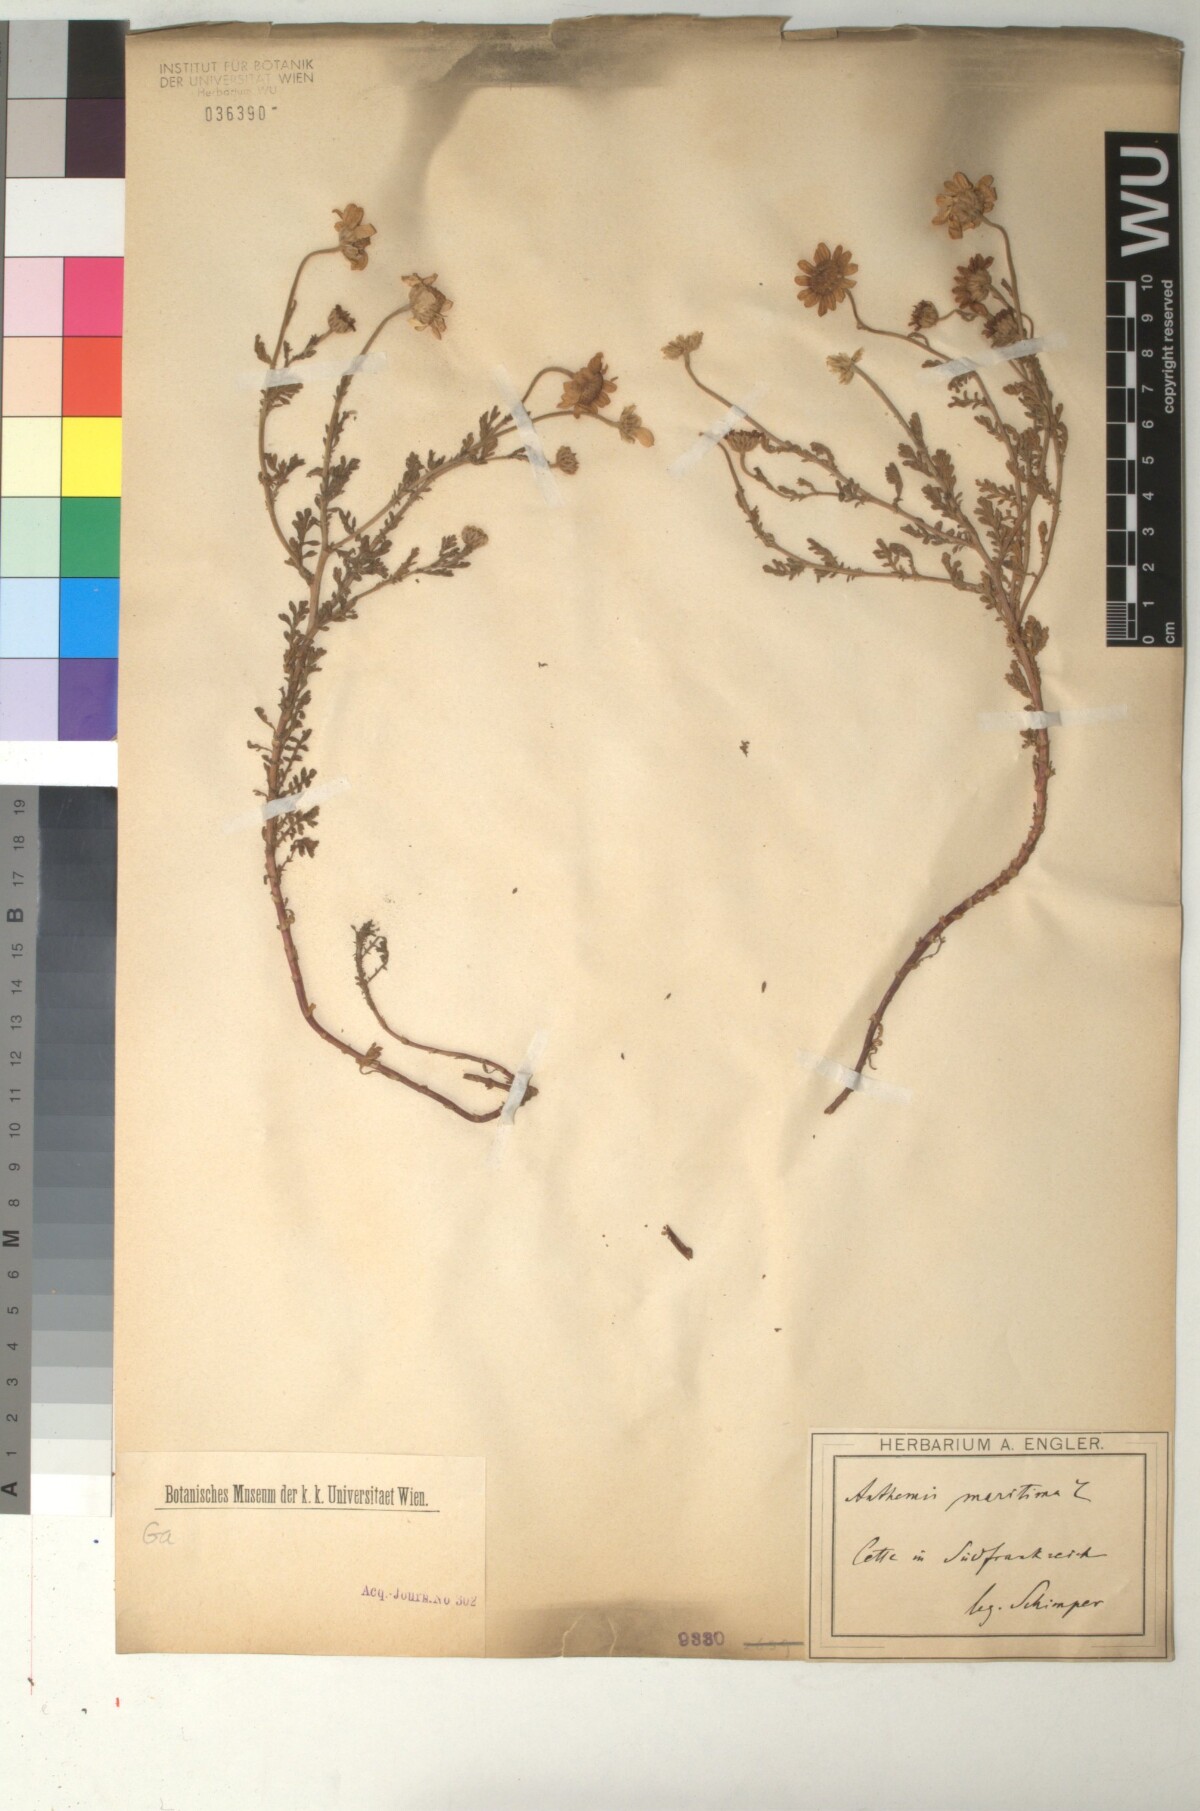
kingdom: Plantae
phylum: Tracheophyta
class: Magnoliopsida
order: Asterales
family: Asteraceae
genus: Anthemis
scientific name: Anthemis maritima
